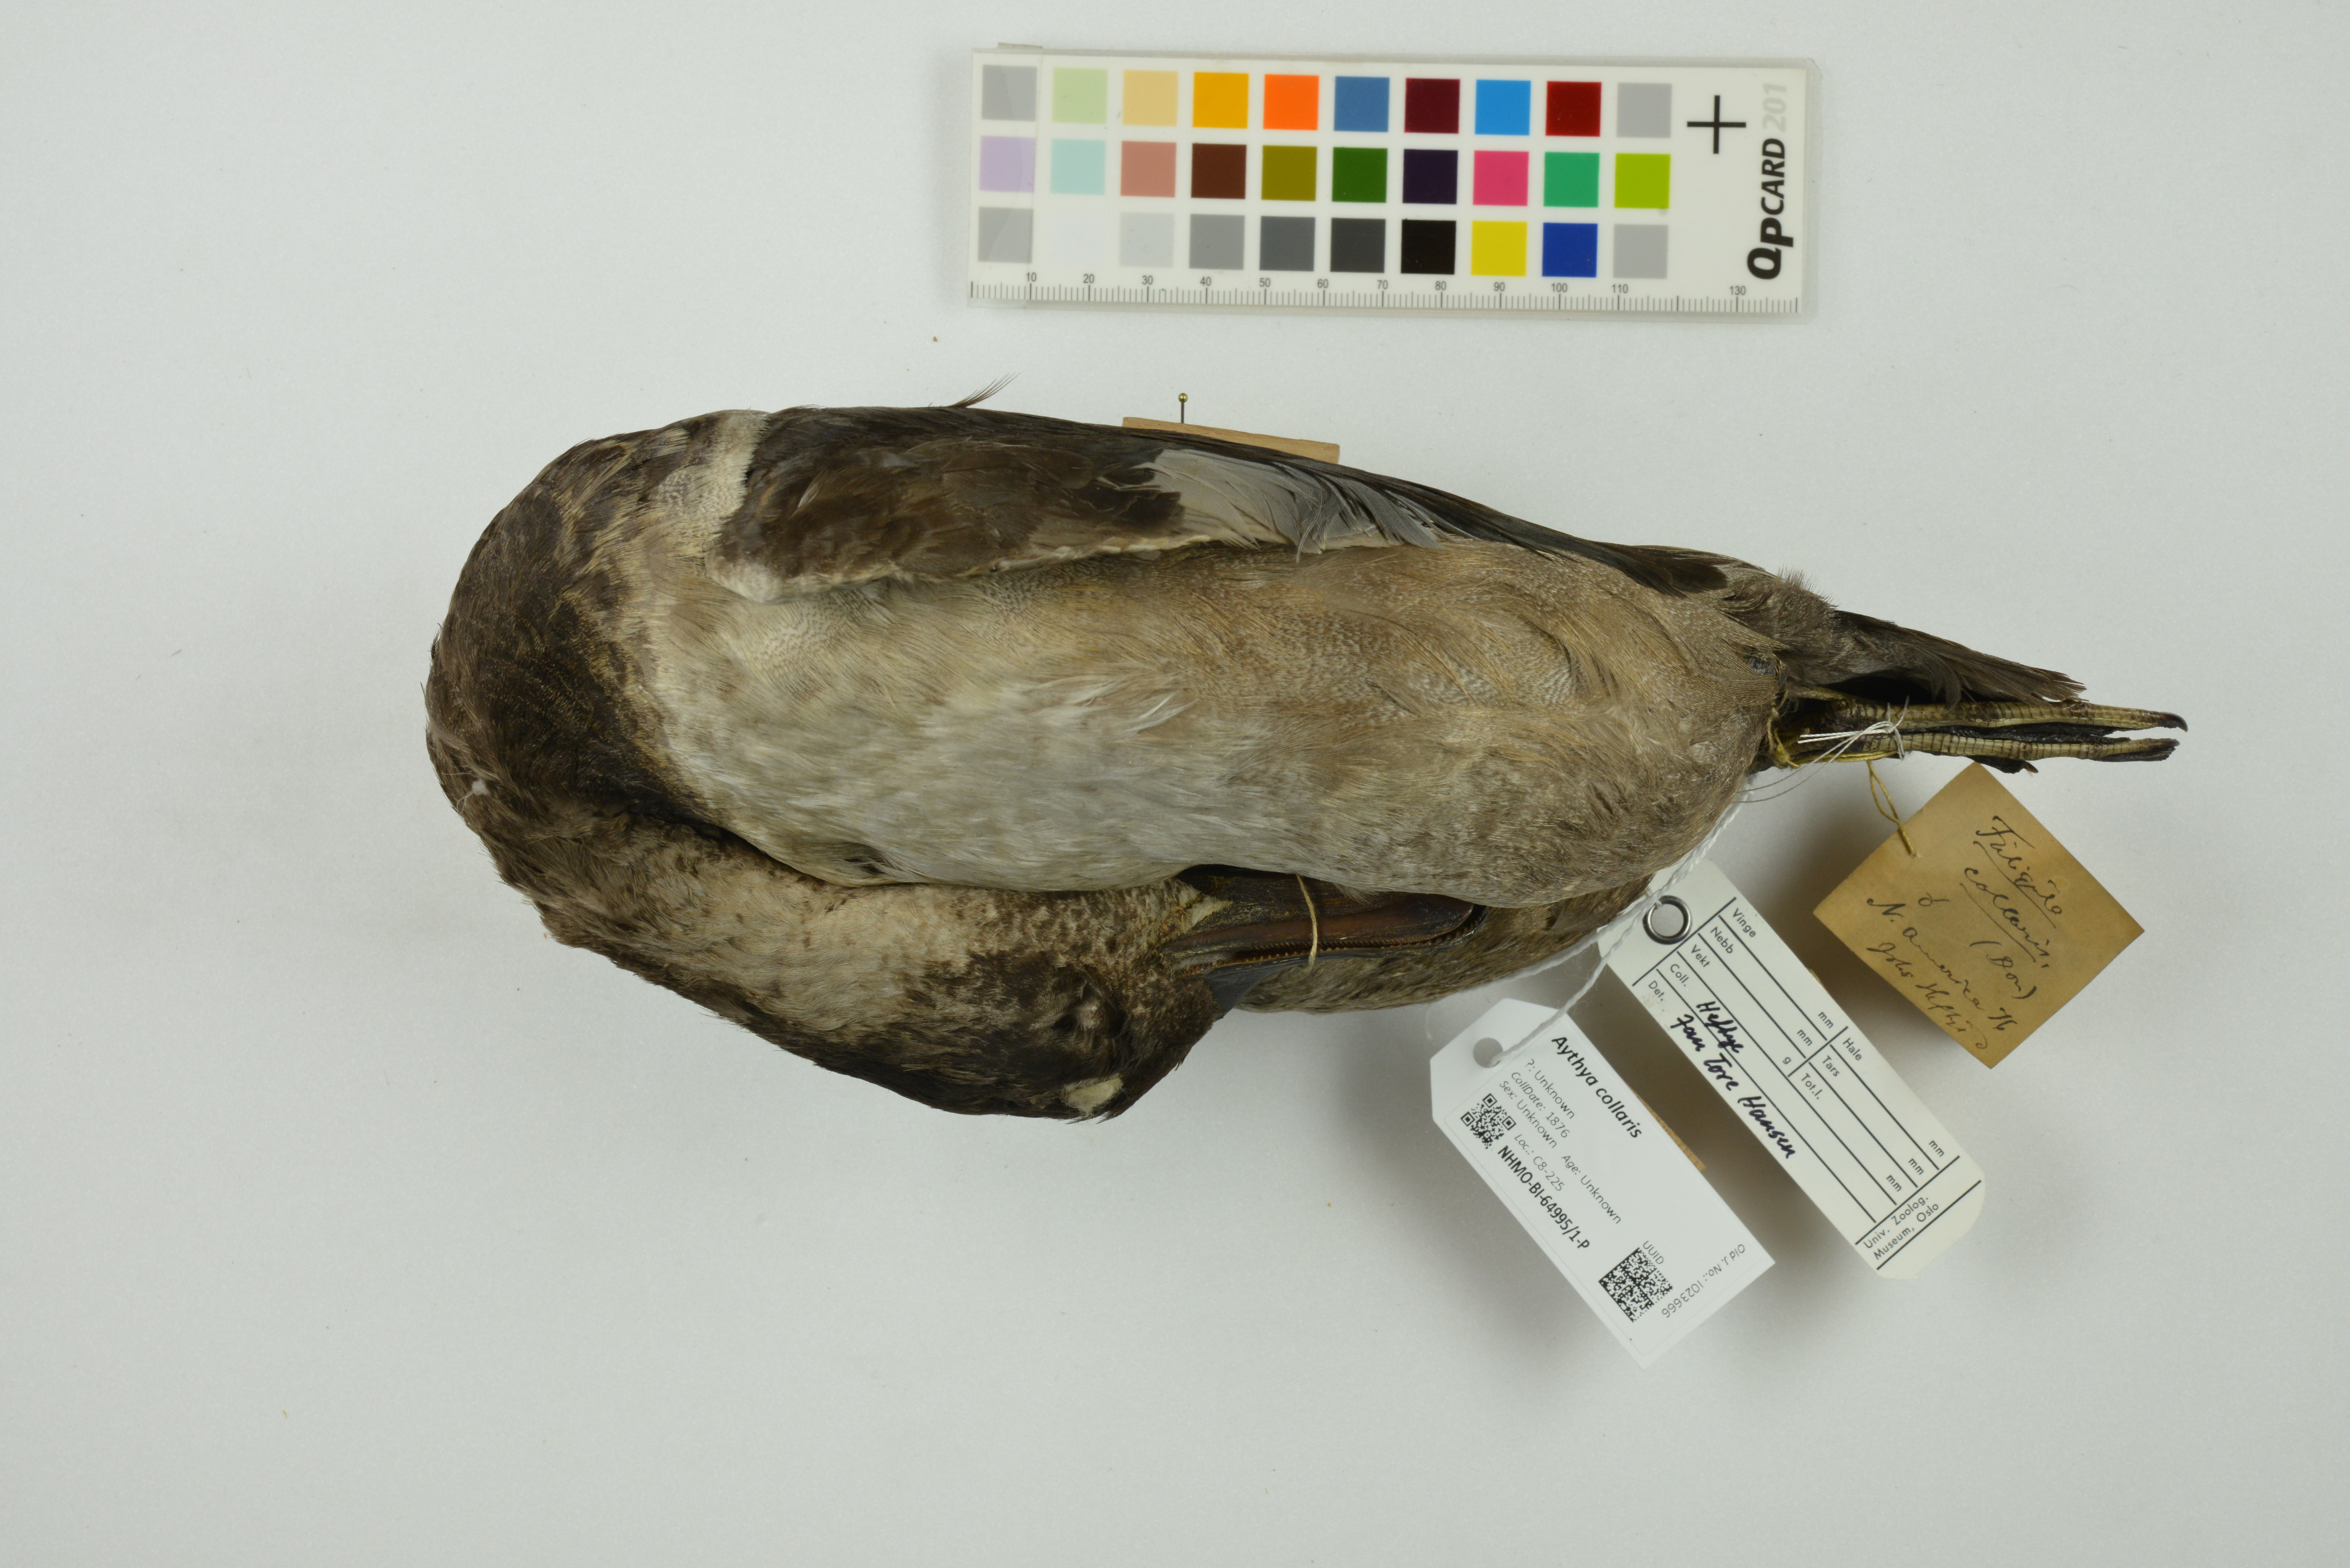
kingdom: Animalia
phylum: Chordata
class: Aves
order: Anseriformes
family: Anatidae
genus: Aythya
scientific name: Aythya collaris
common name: Ring-necked duck
